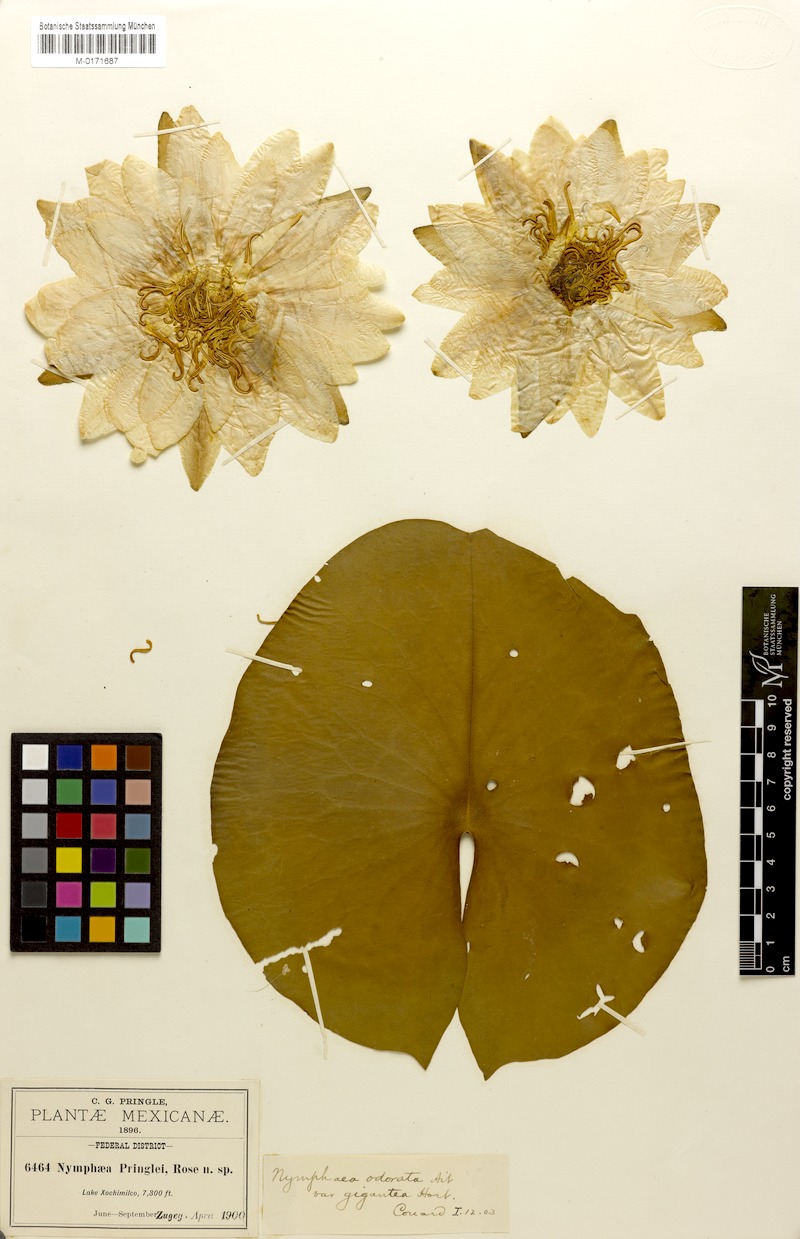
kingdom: Plantae
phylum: Tracheophyta
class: Magnoliopsida
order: Nymphaeales
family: Nymphaeaceae
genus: Nymphaea
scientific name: Nymphaea odorata
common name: Fragrant water-lily
